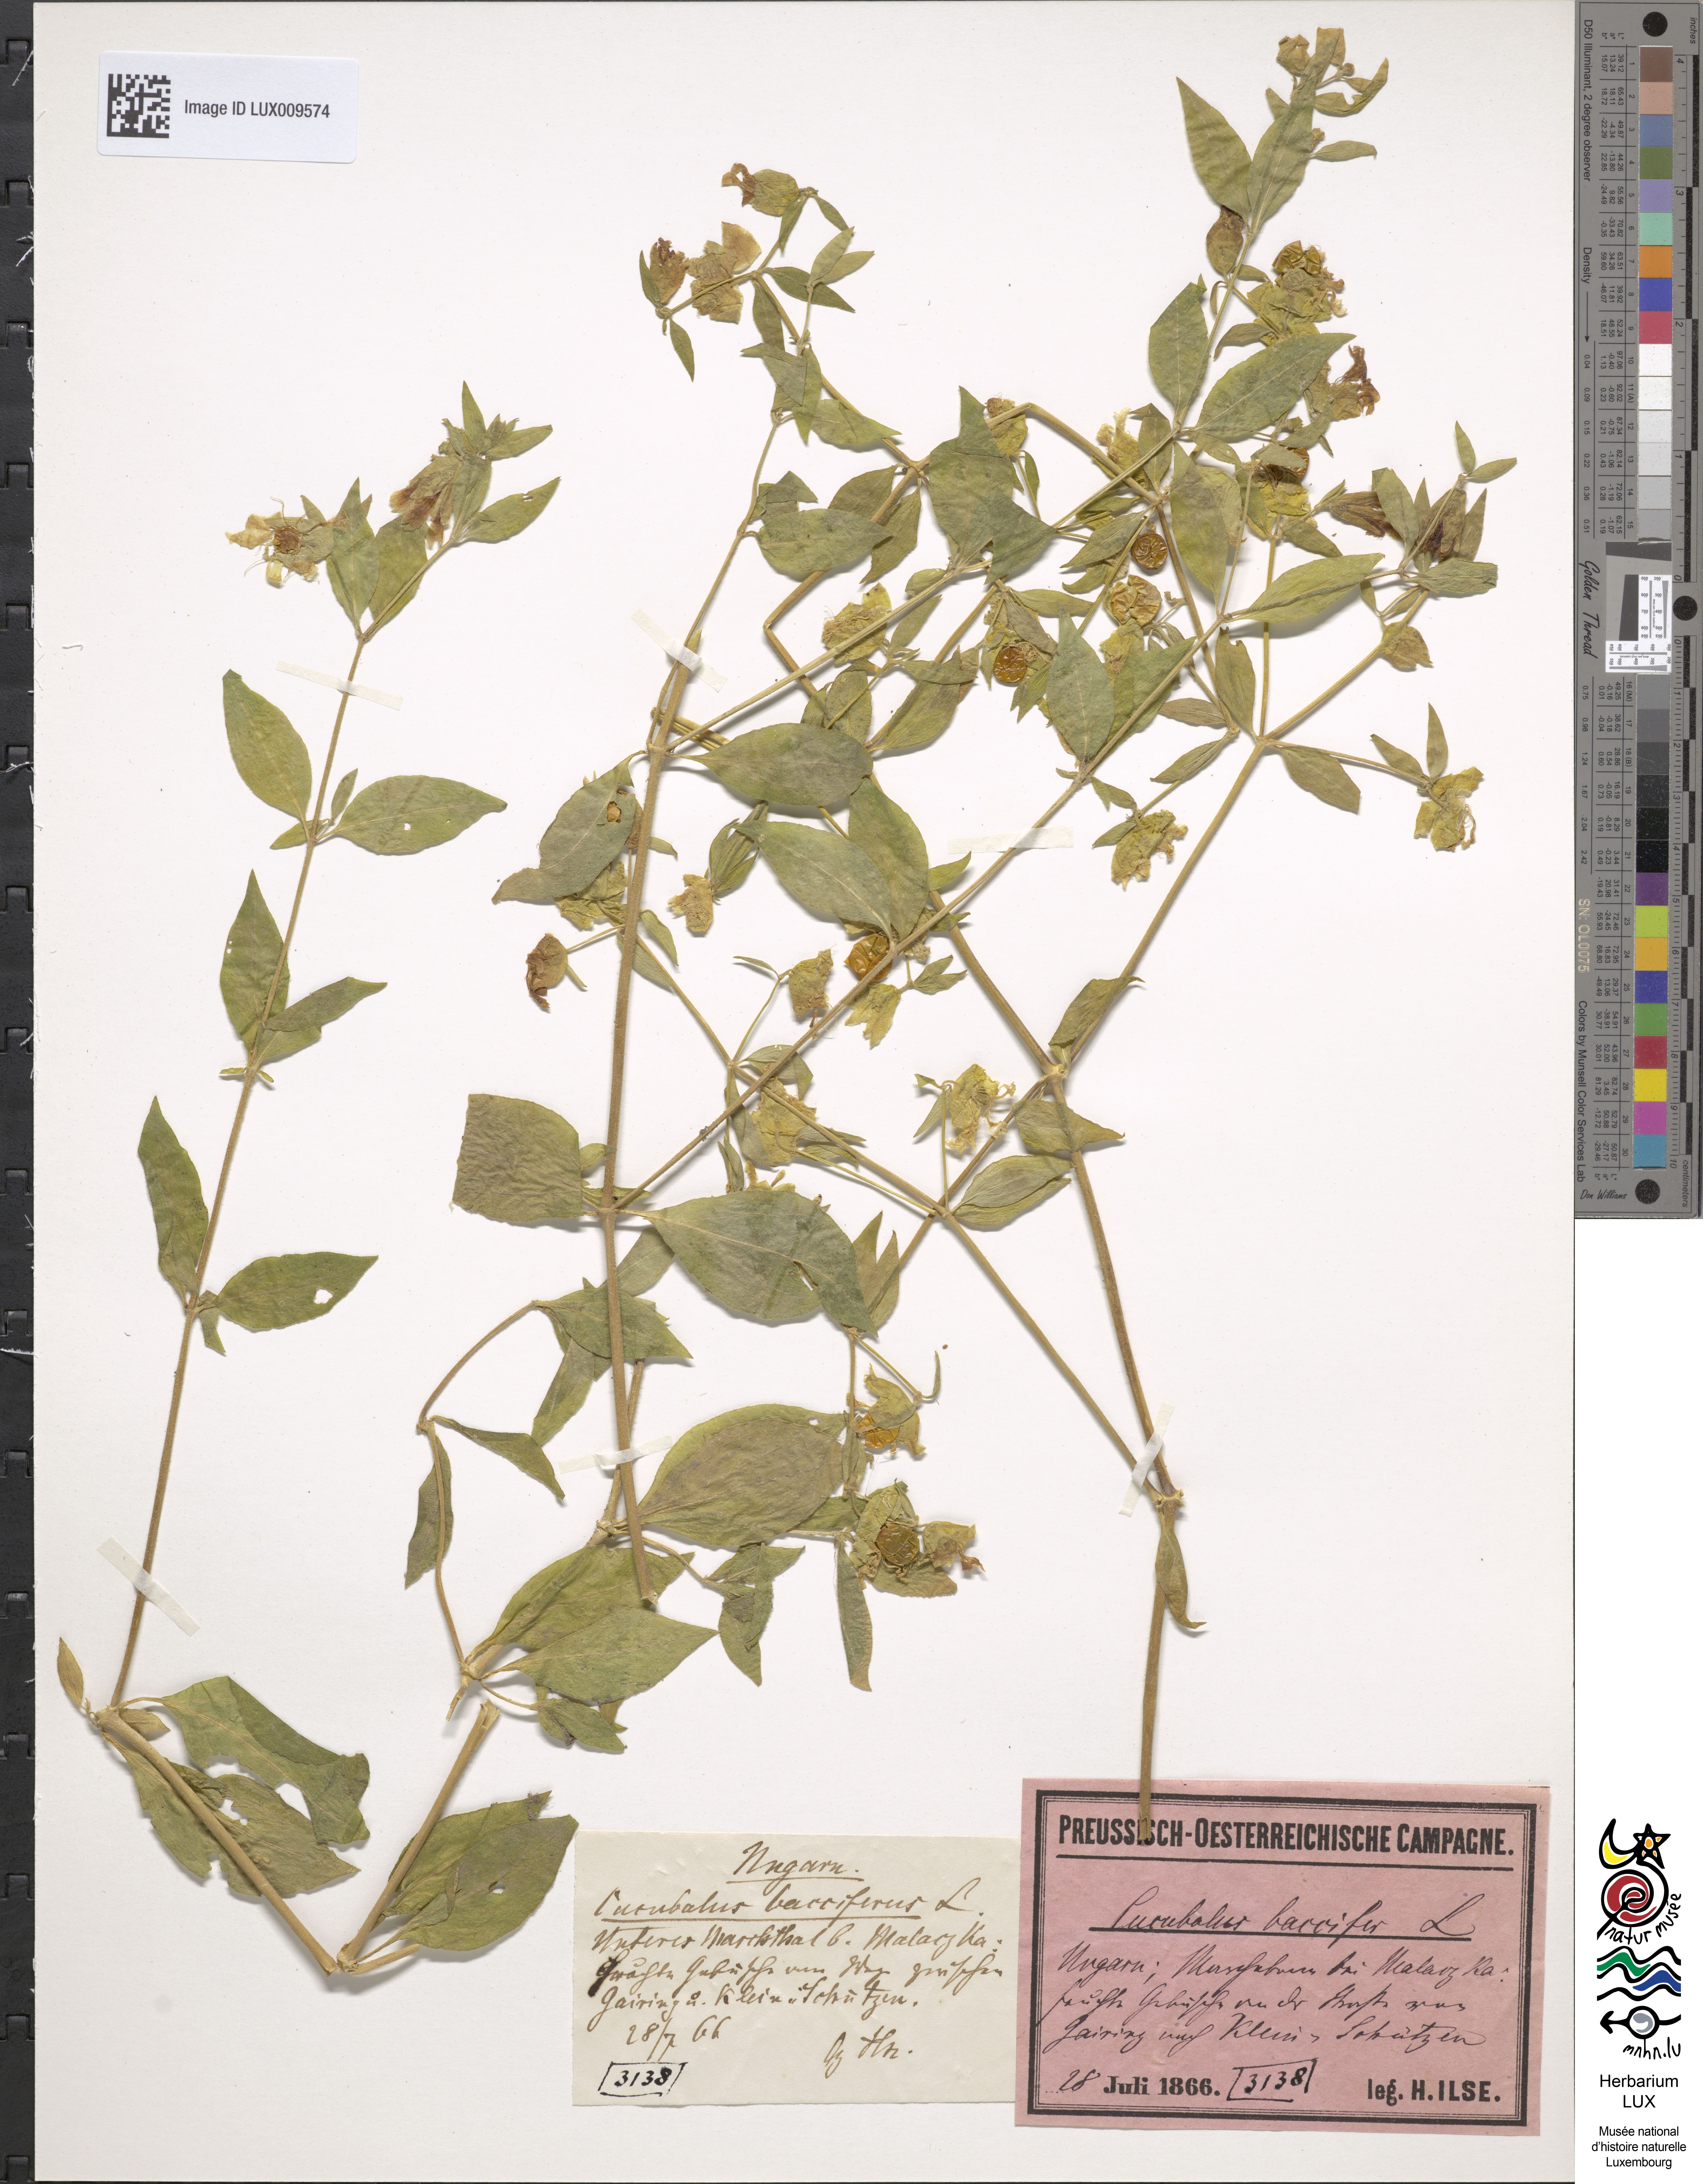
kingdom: Plantae
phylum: Tracheophyta
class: Magnoliopsida
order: Caryophyllales
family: Caryophyllaceae
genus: Silene
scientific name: Silene baccifera
